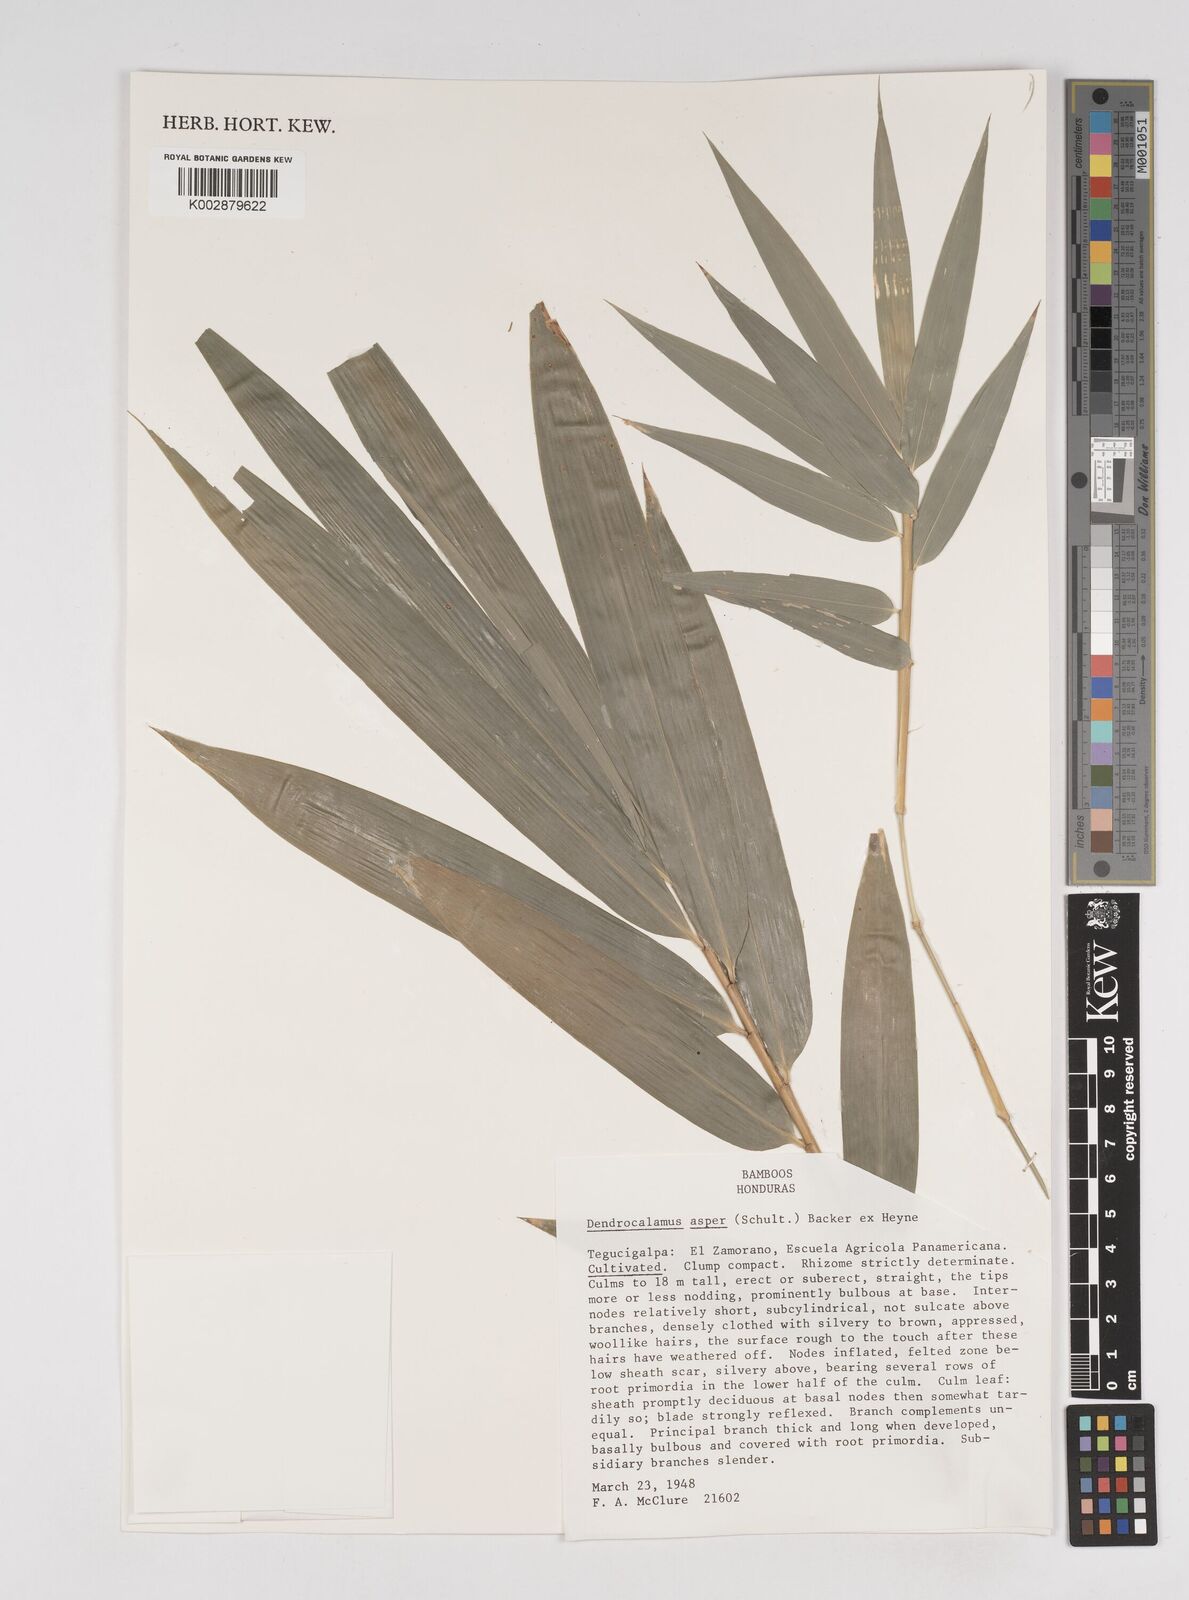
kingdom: Plantae
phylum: Tracheophyta
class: Liliopsida
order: Poales
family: Poaceae
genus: Dendrocalamus
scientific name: Dendrocalamus asper
